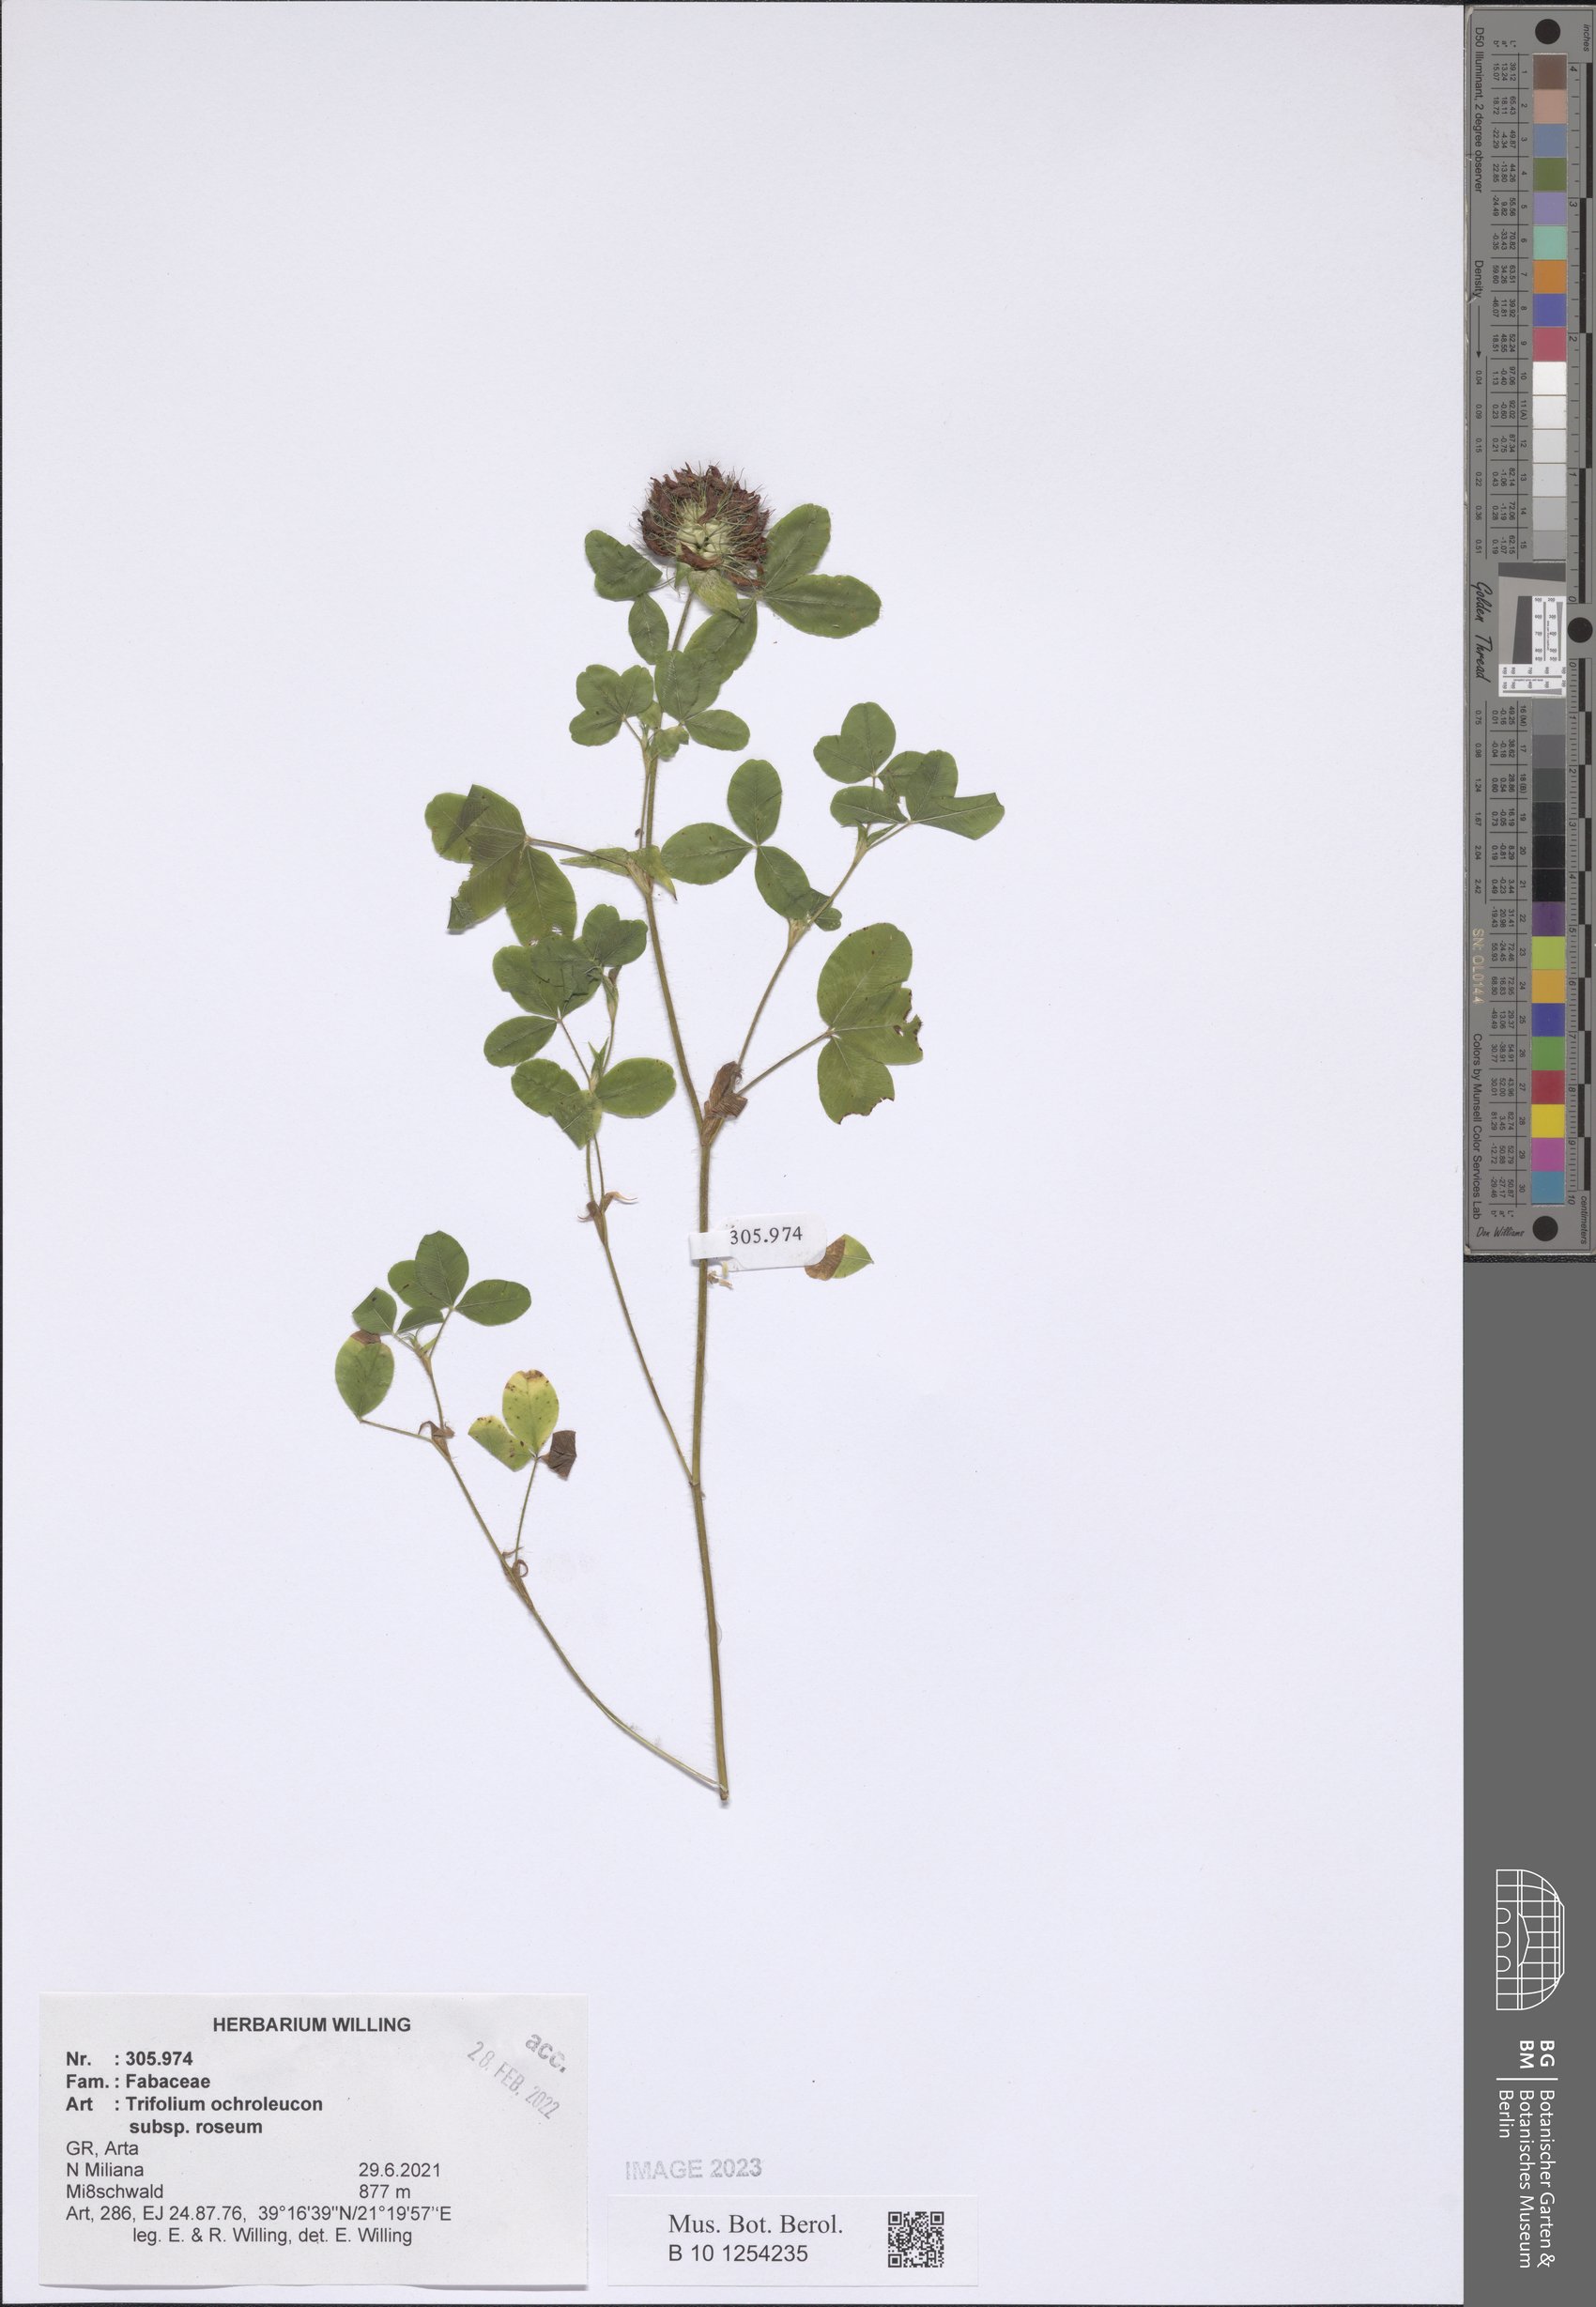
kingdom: Plantae
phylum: Tracheophyta
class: Magnoliopsida
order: Fabales
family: Fabaceae
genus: Trifolium
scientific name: Trifolium ochroleucon
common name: Sulphur clover
